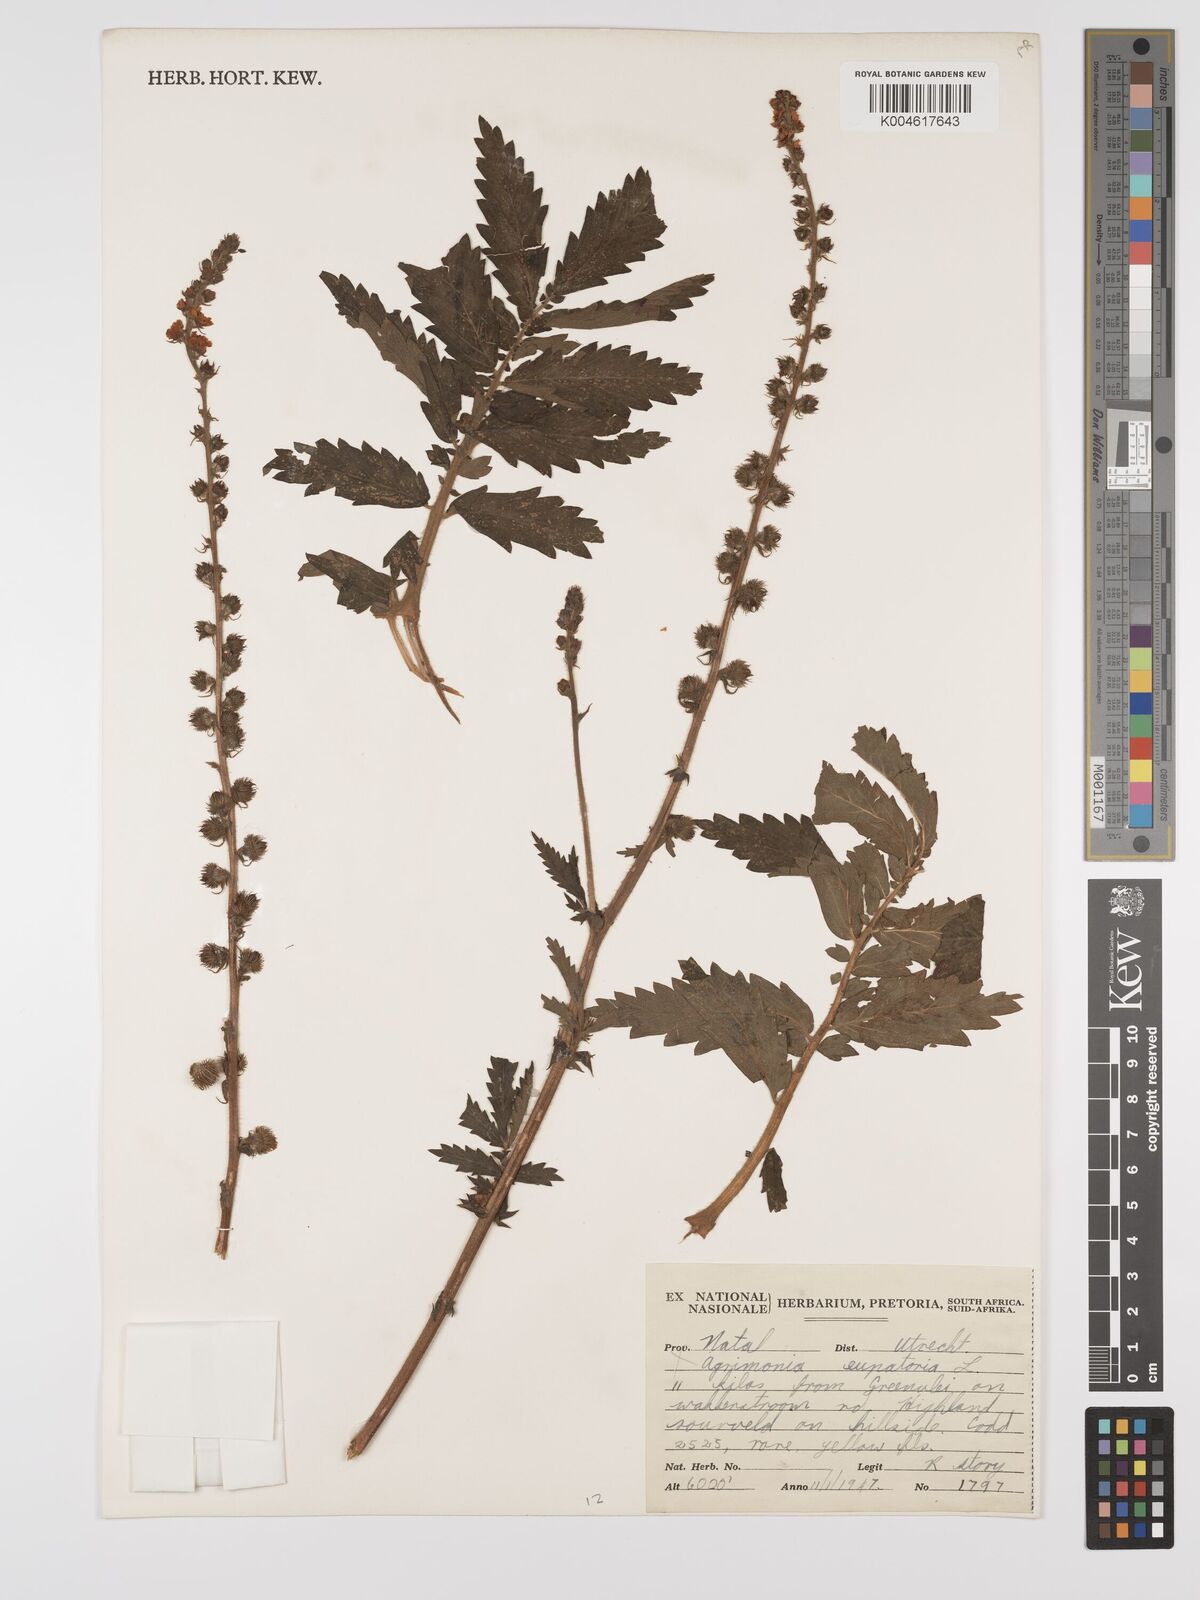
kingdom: Plantae
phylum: Tracheophyta
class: Magnoliopsida
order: Rosales
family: Rosaceae
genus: Agrimonia
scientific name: Agrimonia eupatoria
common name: Agrimony
